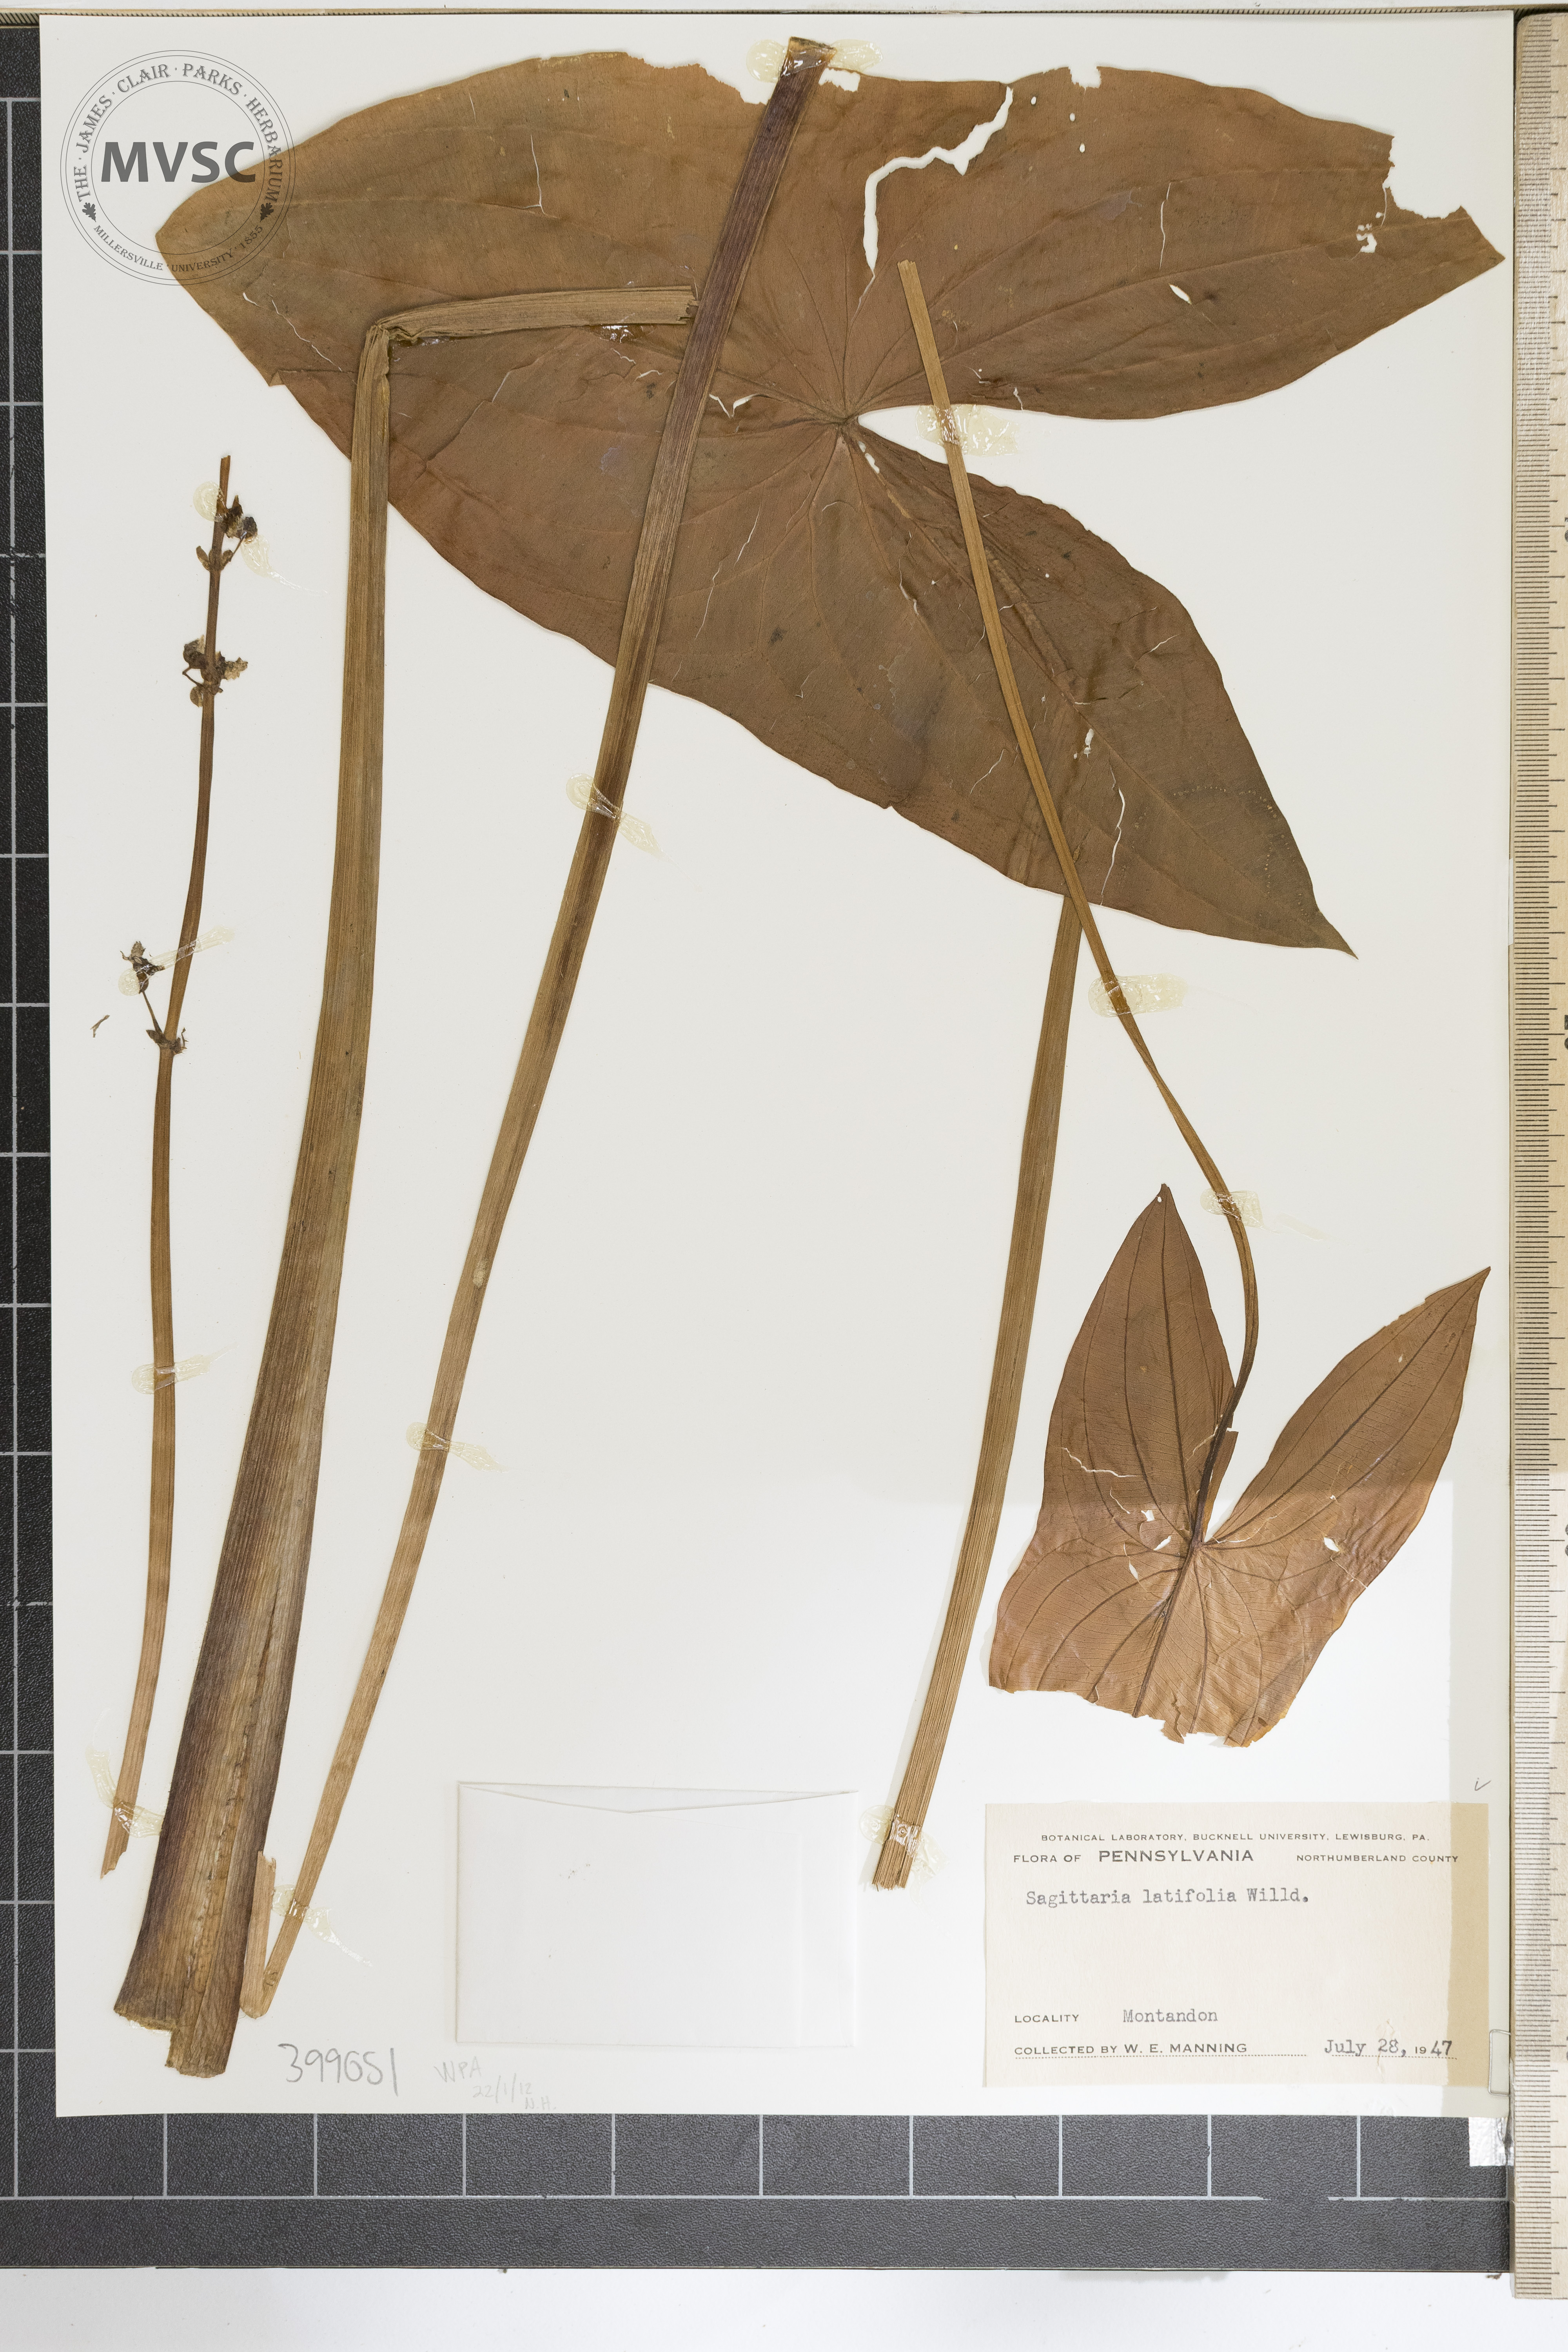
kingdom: Plantae
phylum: Tracheophyta
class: Liliopsida
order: Alismatales
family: Alismataceae
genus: Sagittaria
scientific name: Sagittaria latifolia
